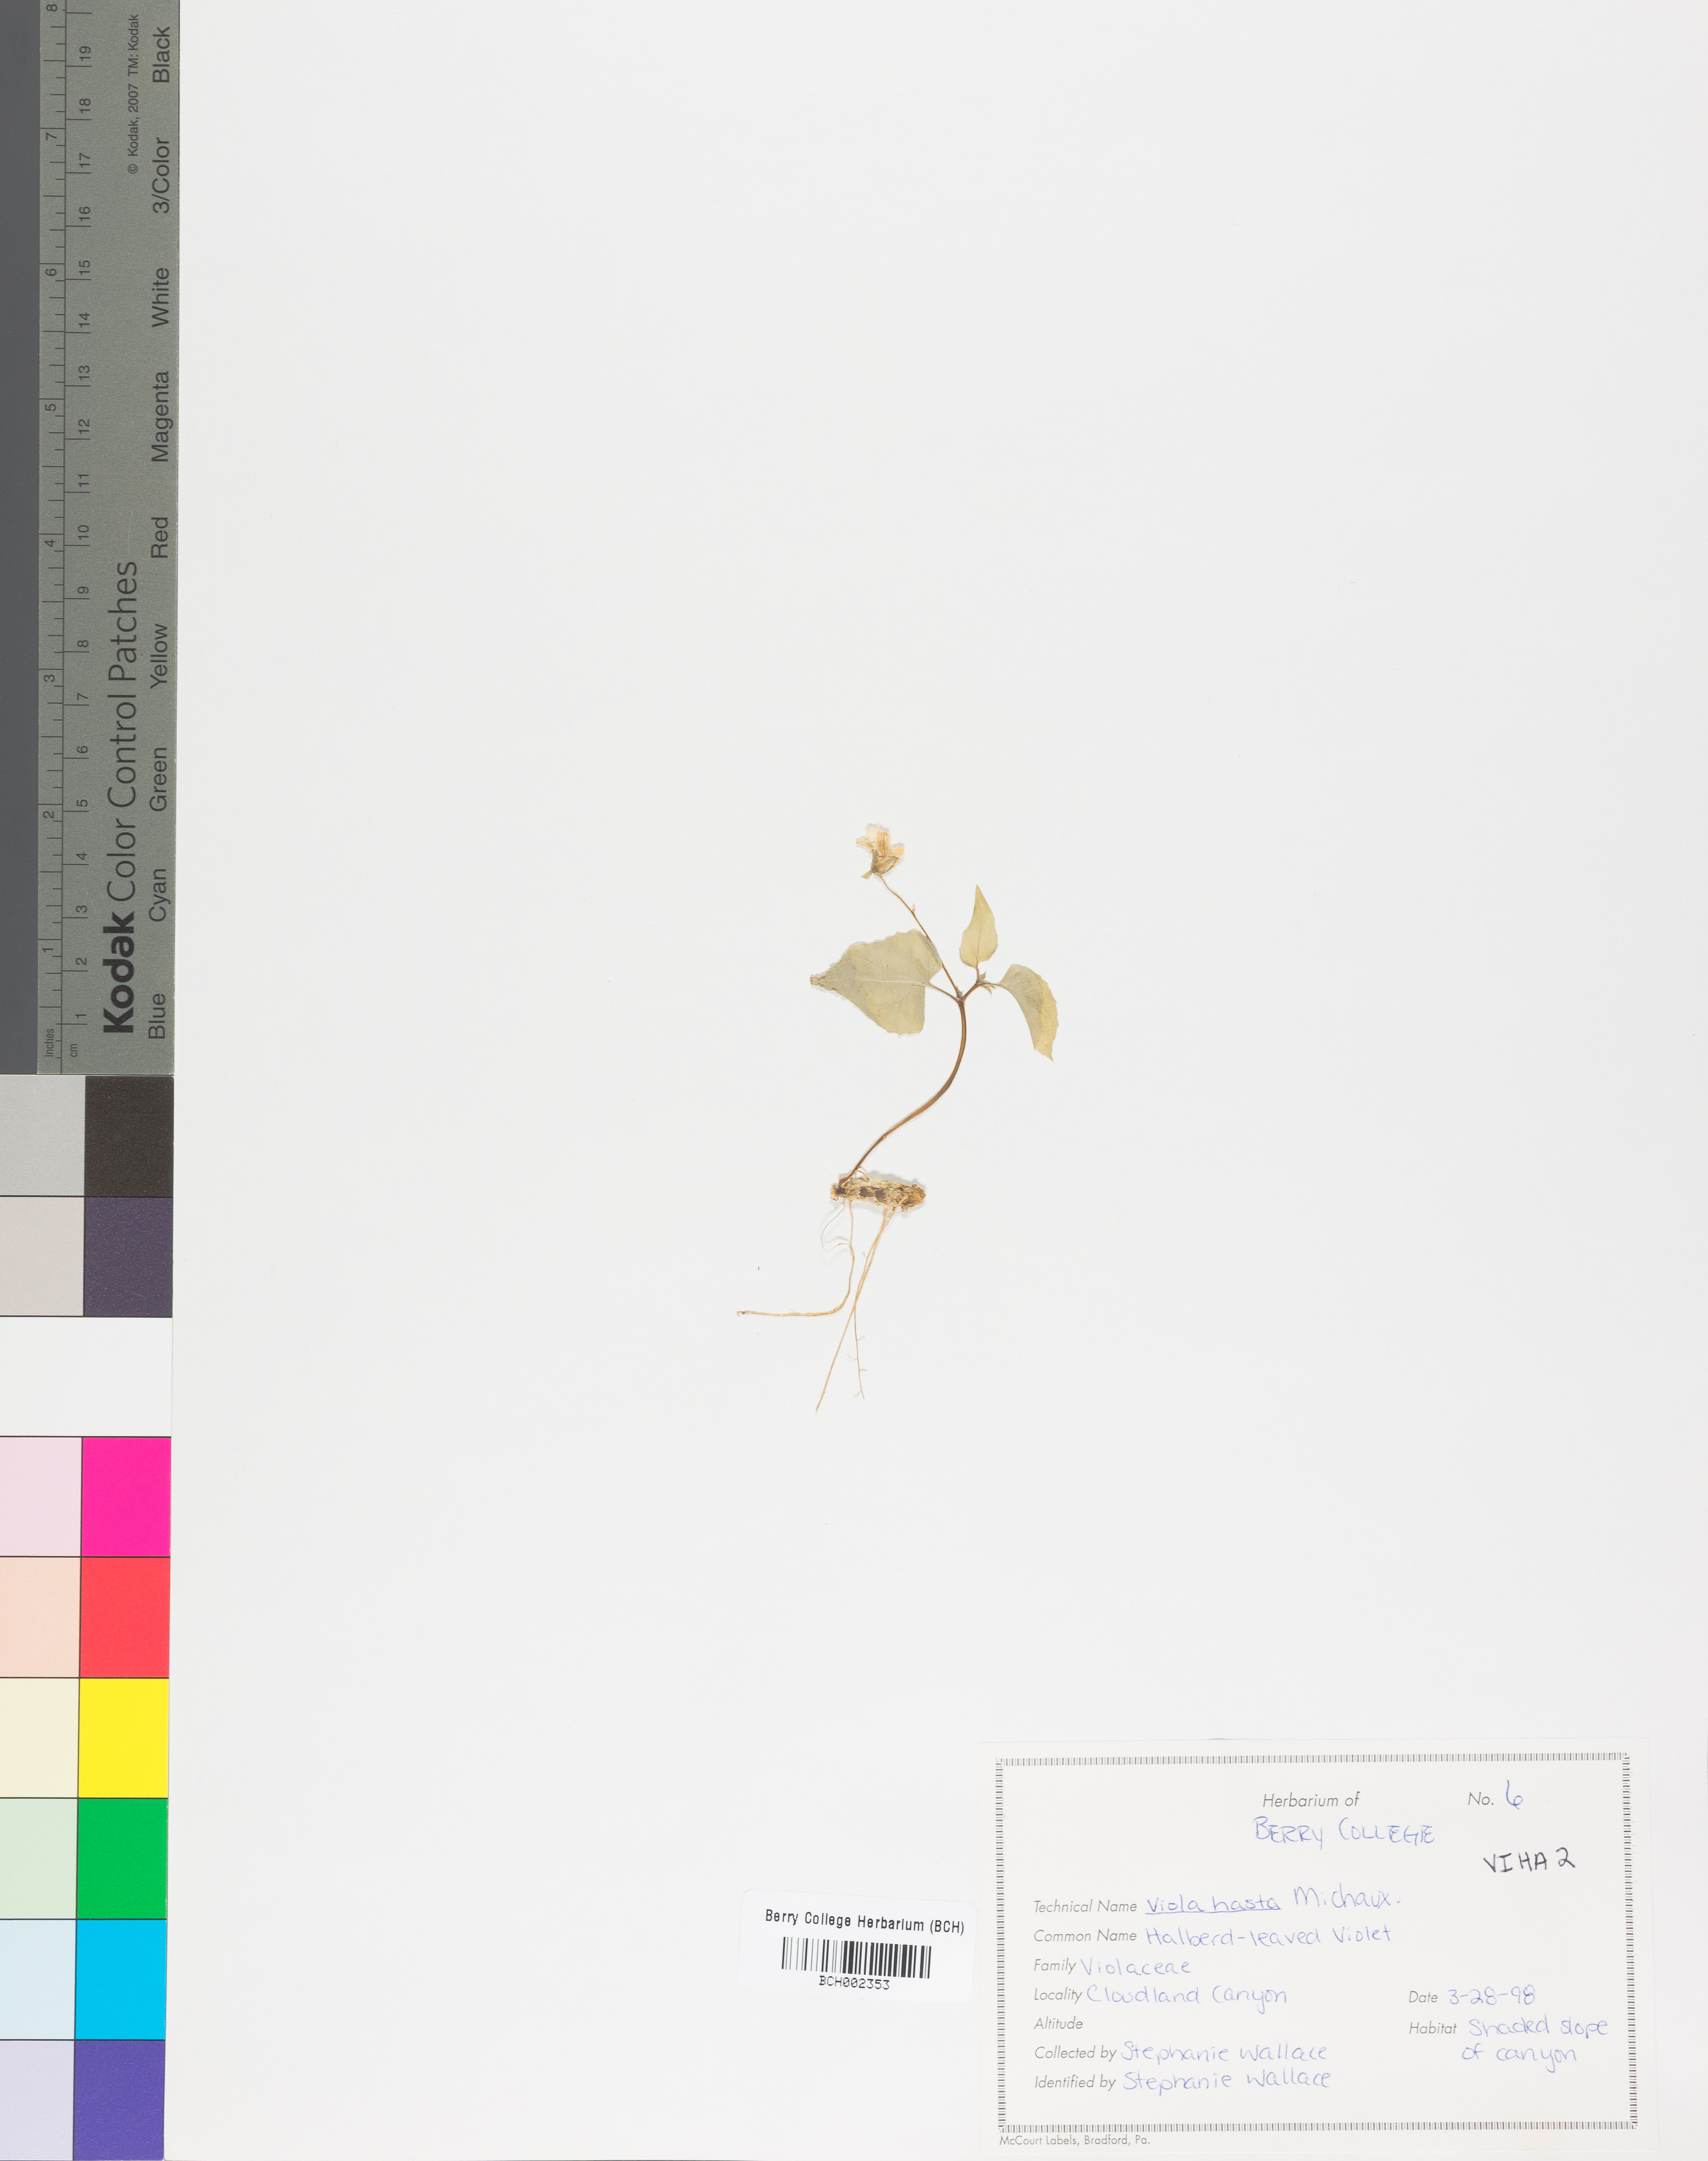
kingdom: Plantae
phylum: Tracheophyta
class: Magnoliopsida
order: Malpighiales
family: Violaceae
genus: Viola
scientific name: Viola hastata
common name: Spear-leaf violet
